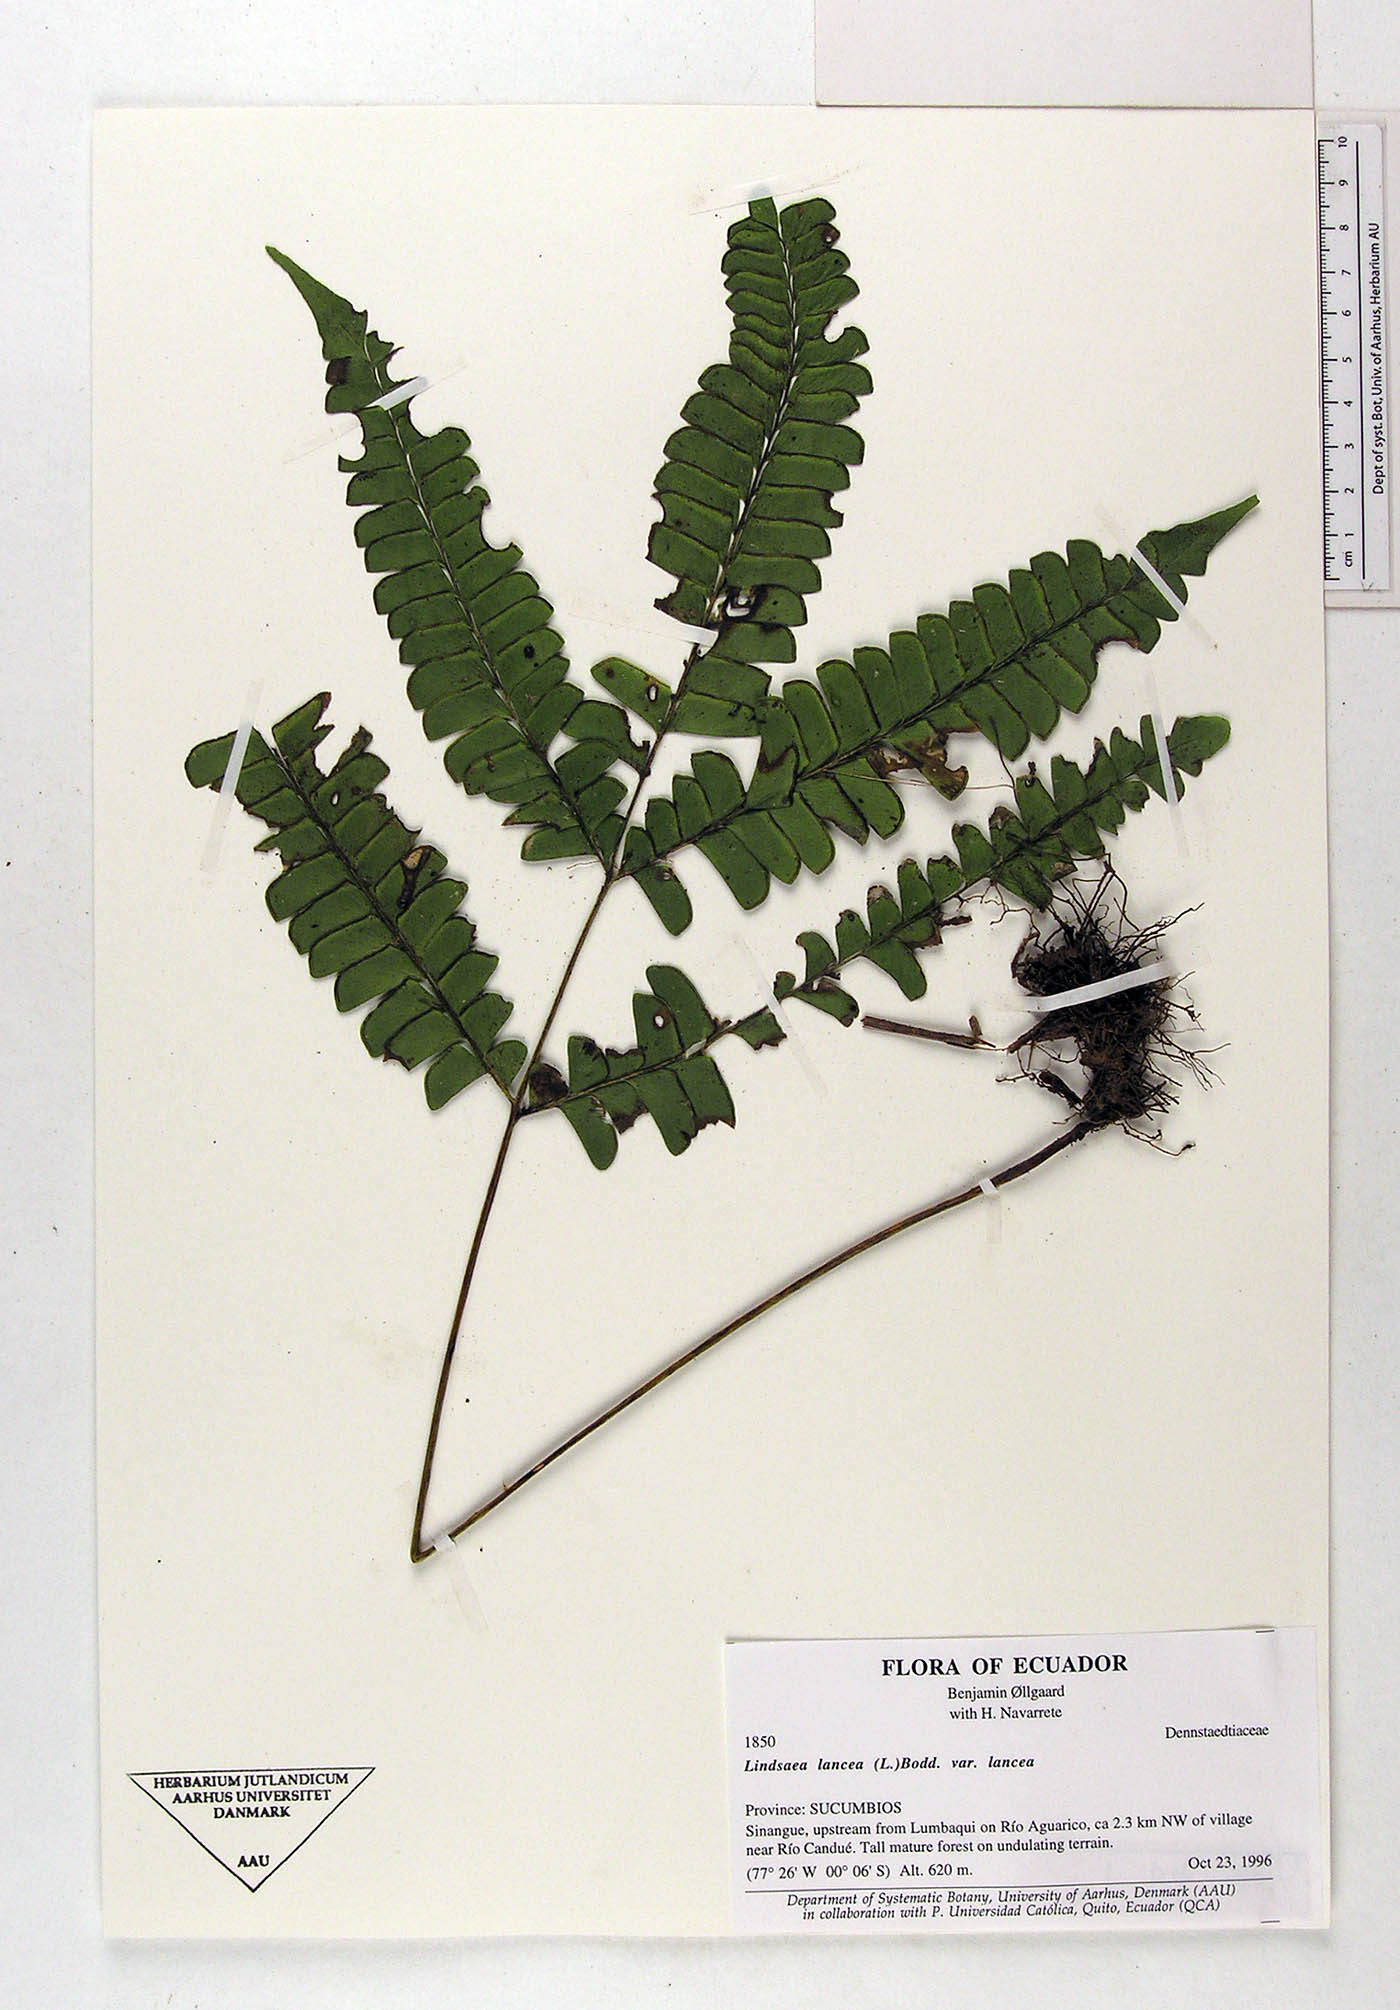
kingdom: Plantae
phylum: Tracheophyta
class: Polypodiopsida
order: Polypodiales
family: Dennstaedtiaceae
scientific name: Dennstaedtiaceae
